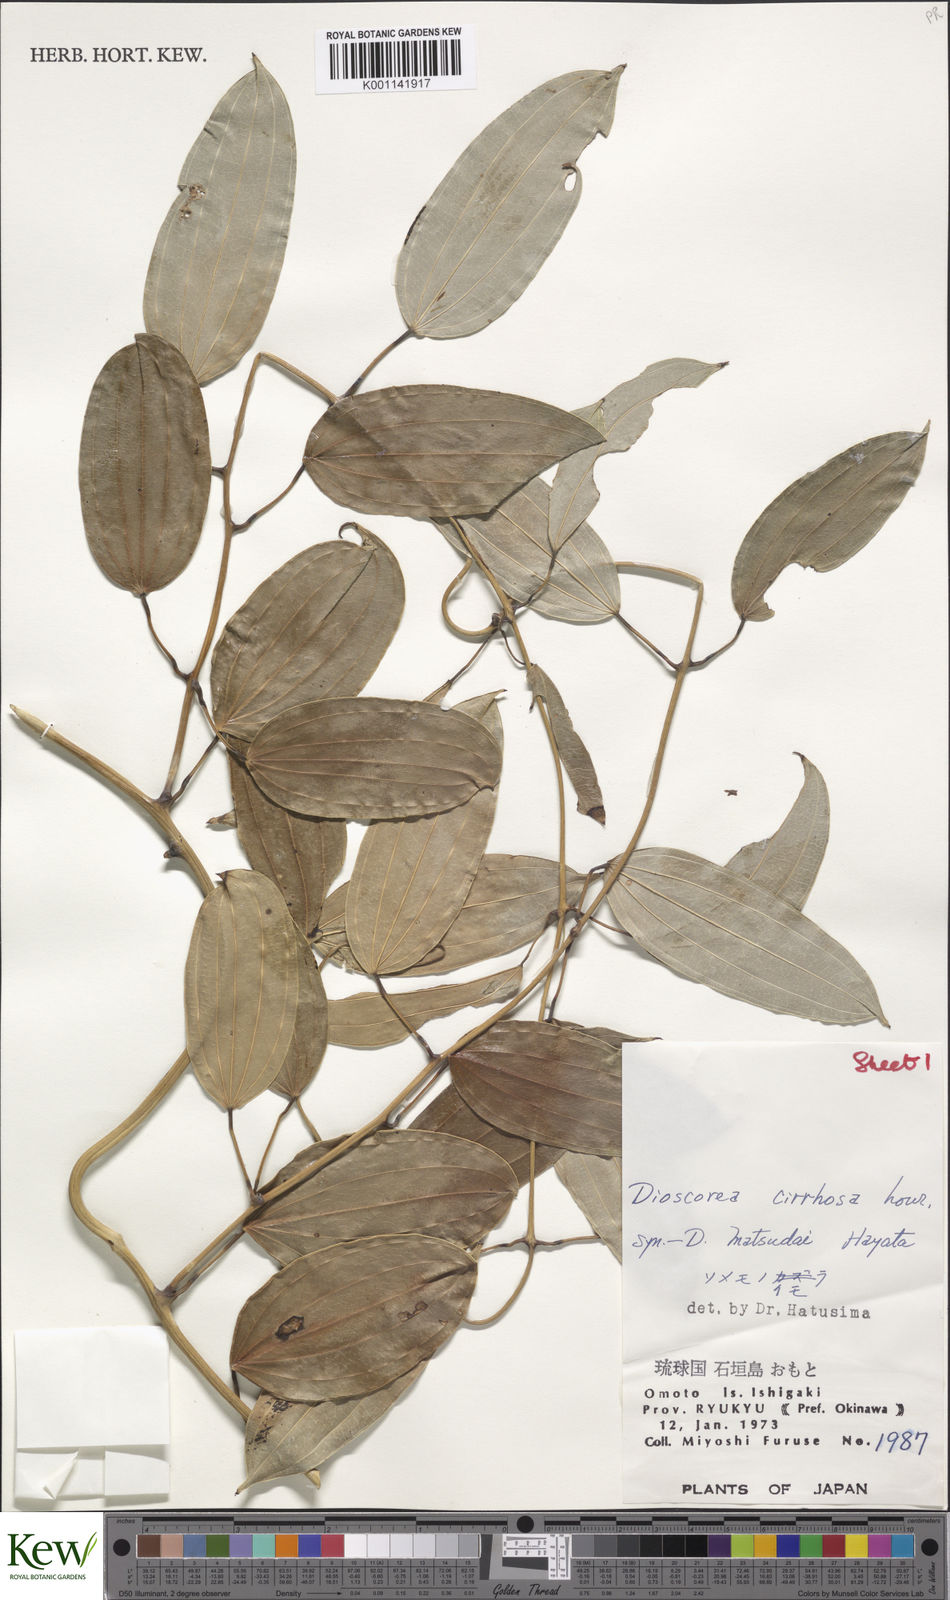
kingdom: Plantae
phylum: Tracheophyta
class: Liliopsida
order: Dioscoreales
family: Dioscoreaceae
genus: Dioscorea
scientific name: Dioscorea cirrhosa
